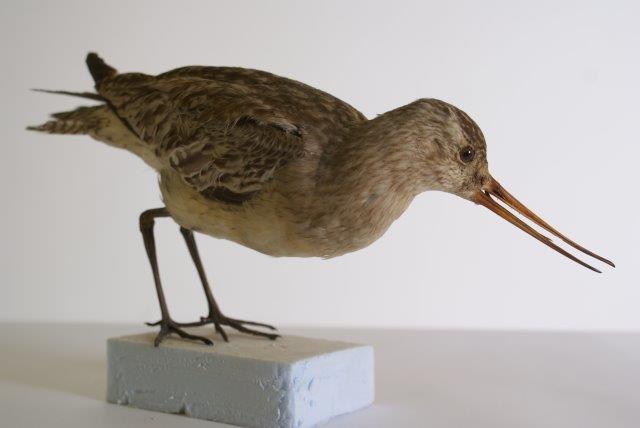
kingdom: Animalia
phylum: Chordata
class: Aves
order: Charadriiformes
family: Scolopacidae
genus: Limosa
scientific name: Limosa lapponica
